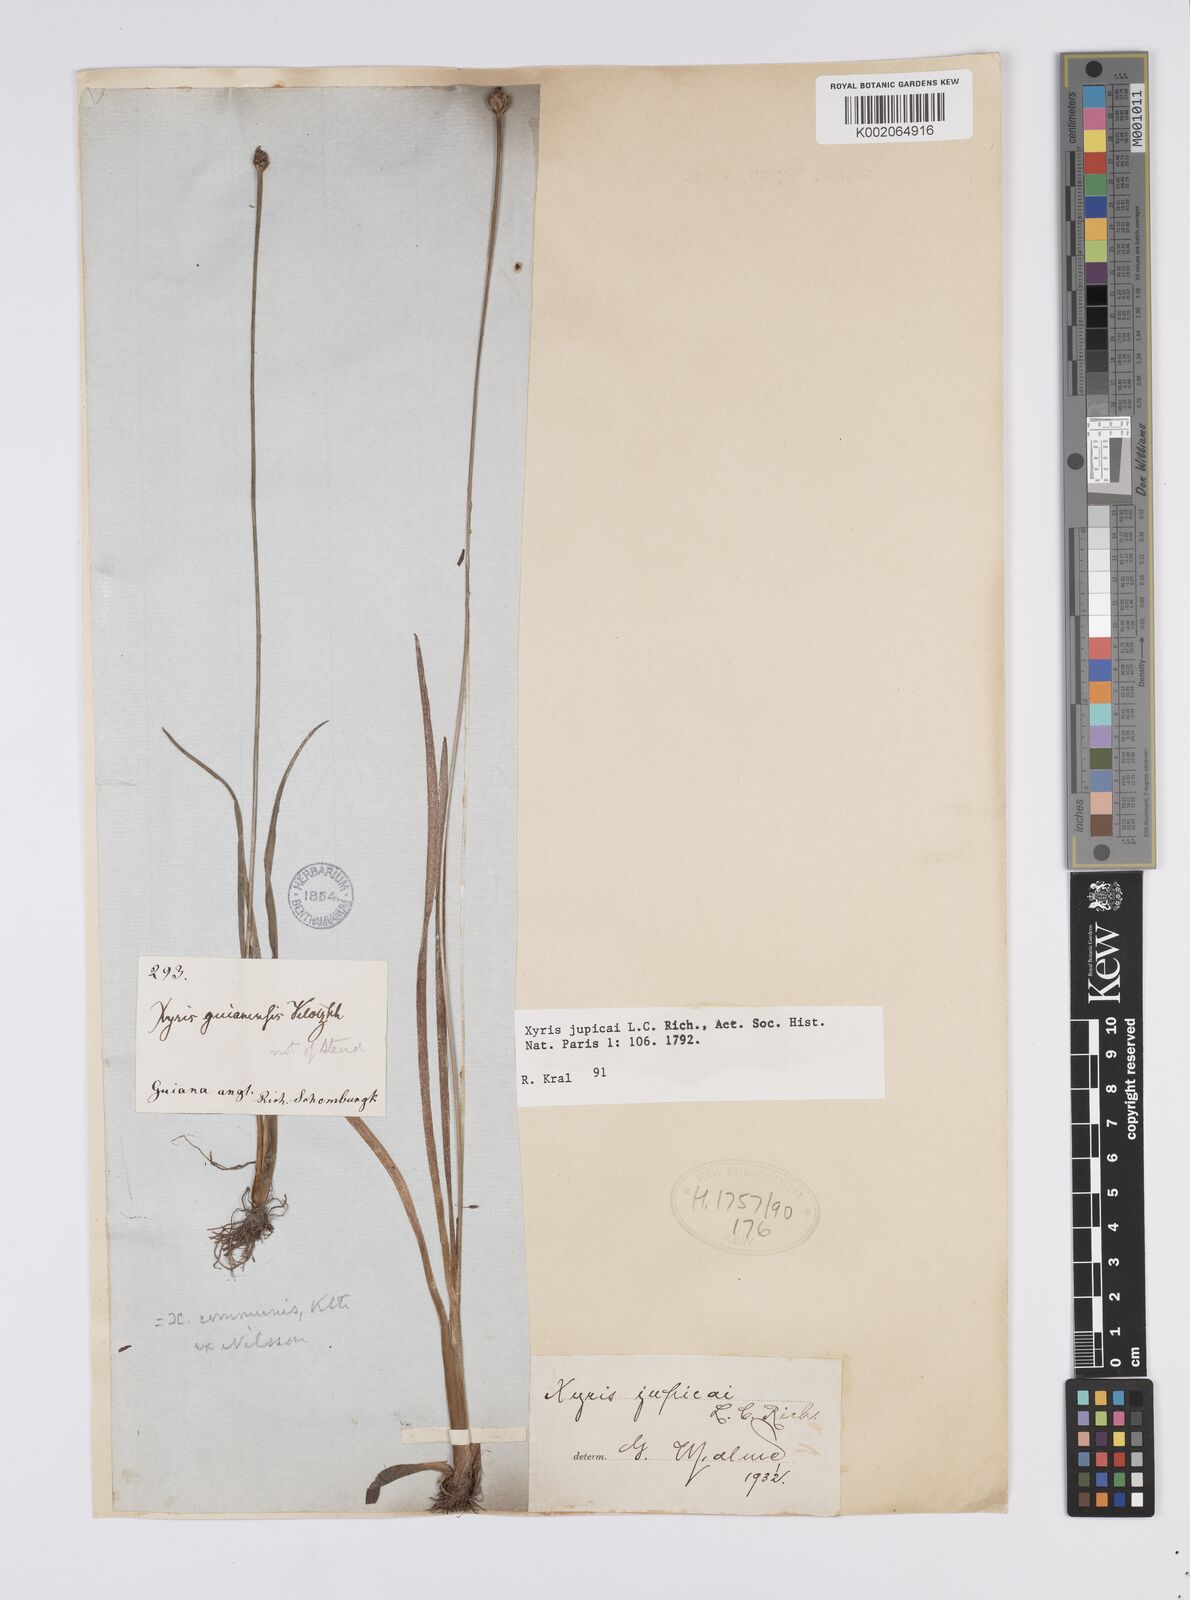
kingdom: Plantae
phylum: Tracheophyta
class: Liliopsida
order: Poales
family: Xyridaceae
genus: Xyris
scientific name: Xyris jupicai
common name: Richard's yelloweyed grass
